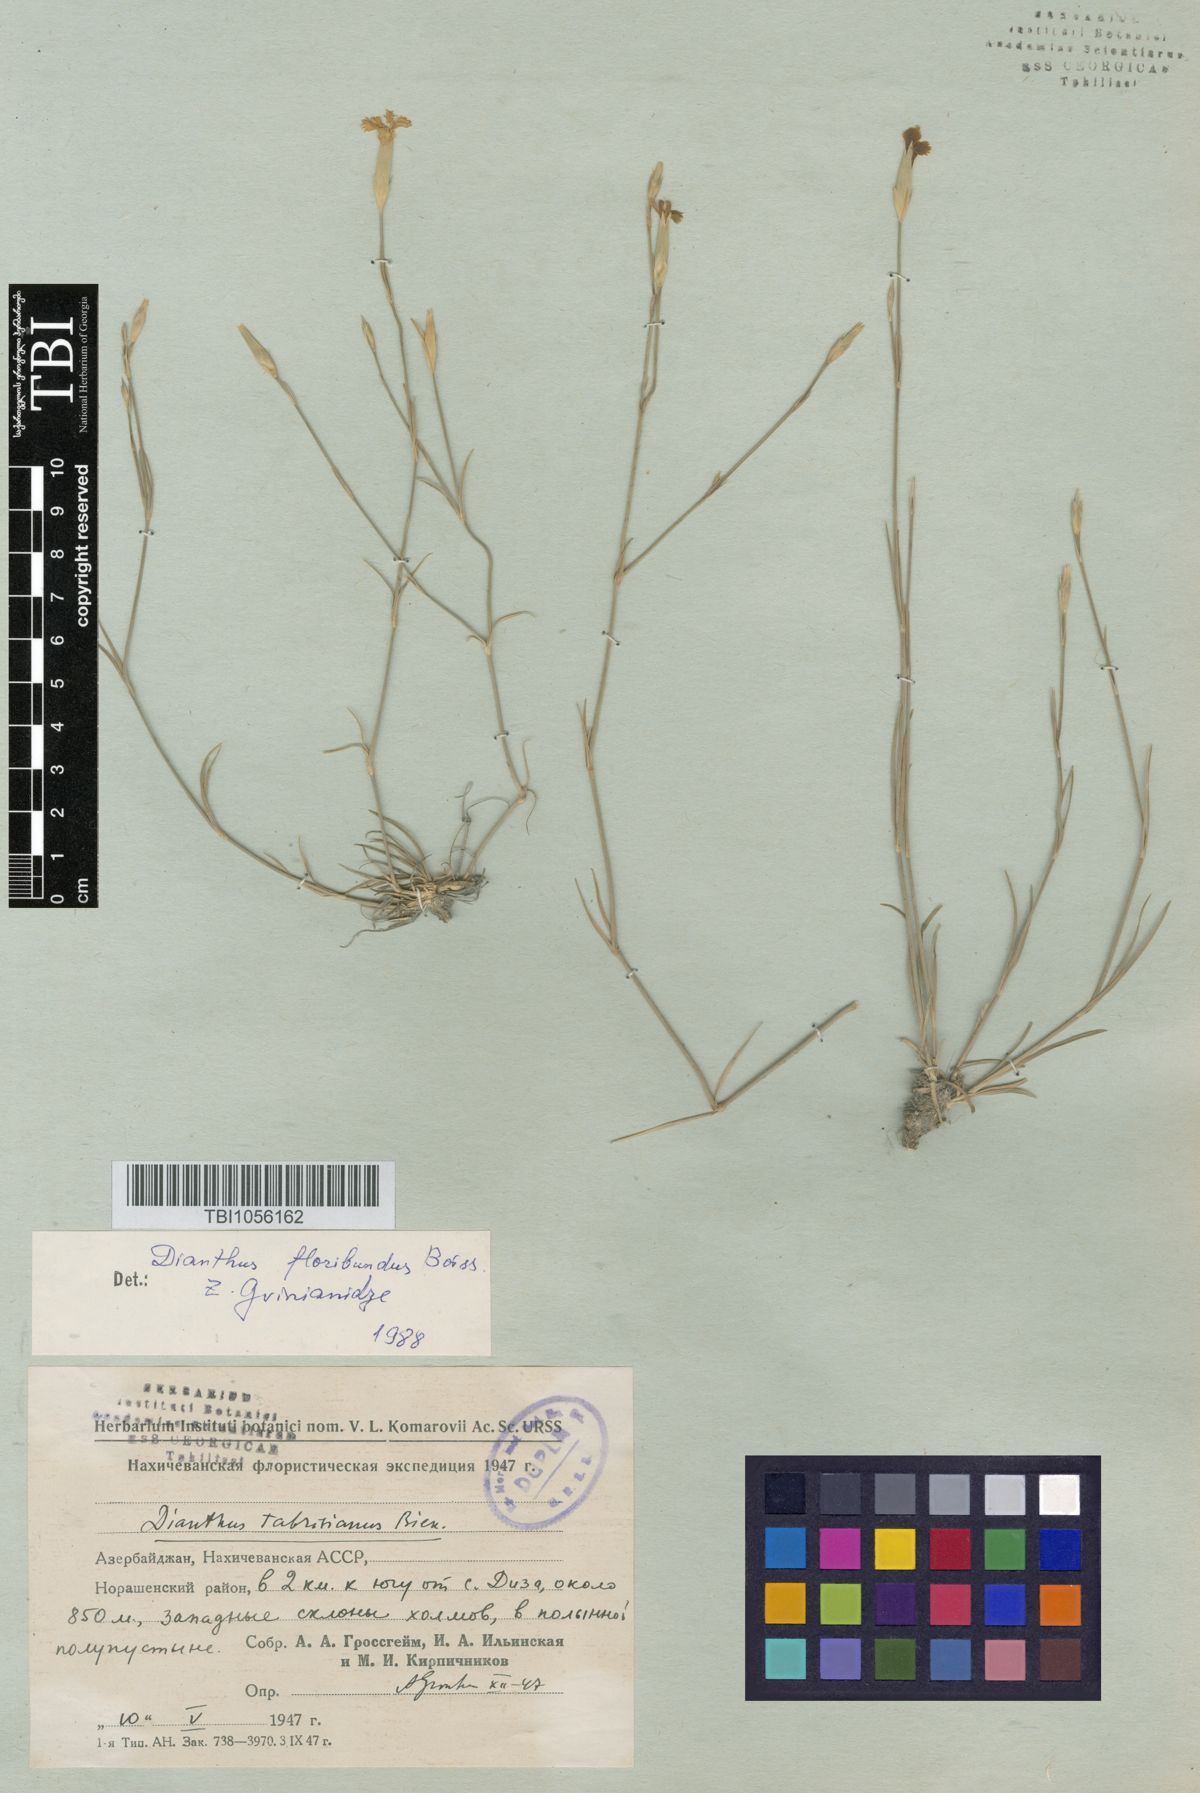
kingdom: Plantae
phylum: Tracheophyta
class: Magnoliopsida
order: Caryophyllales
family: Caryophyllaceae
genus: Dianthus
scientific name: Dianthus tabrisianus
